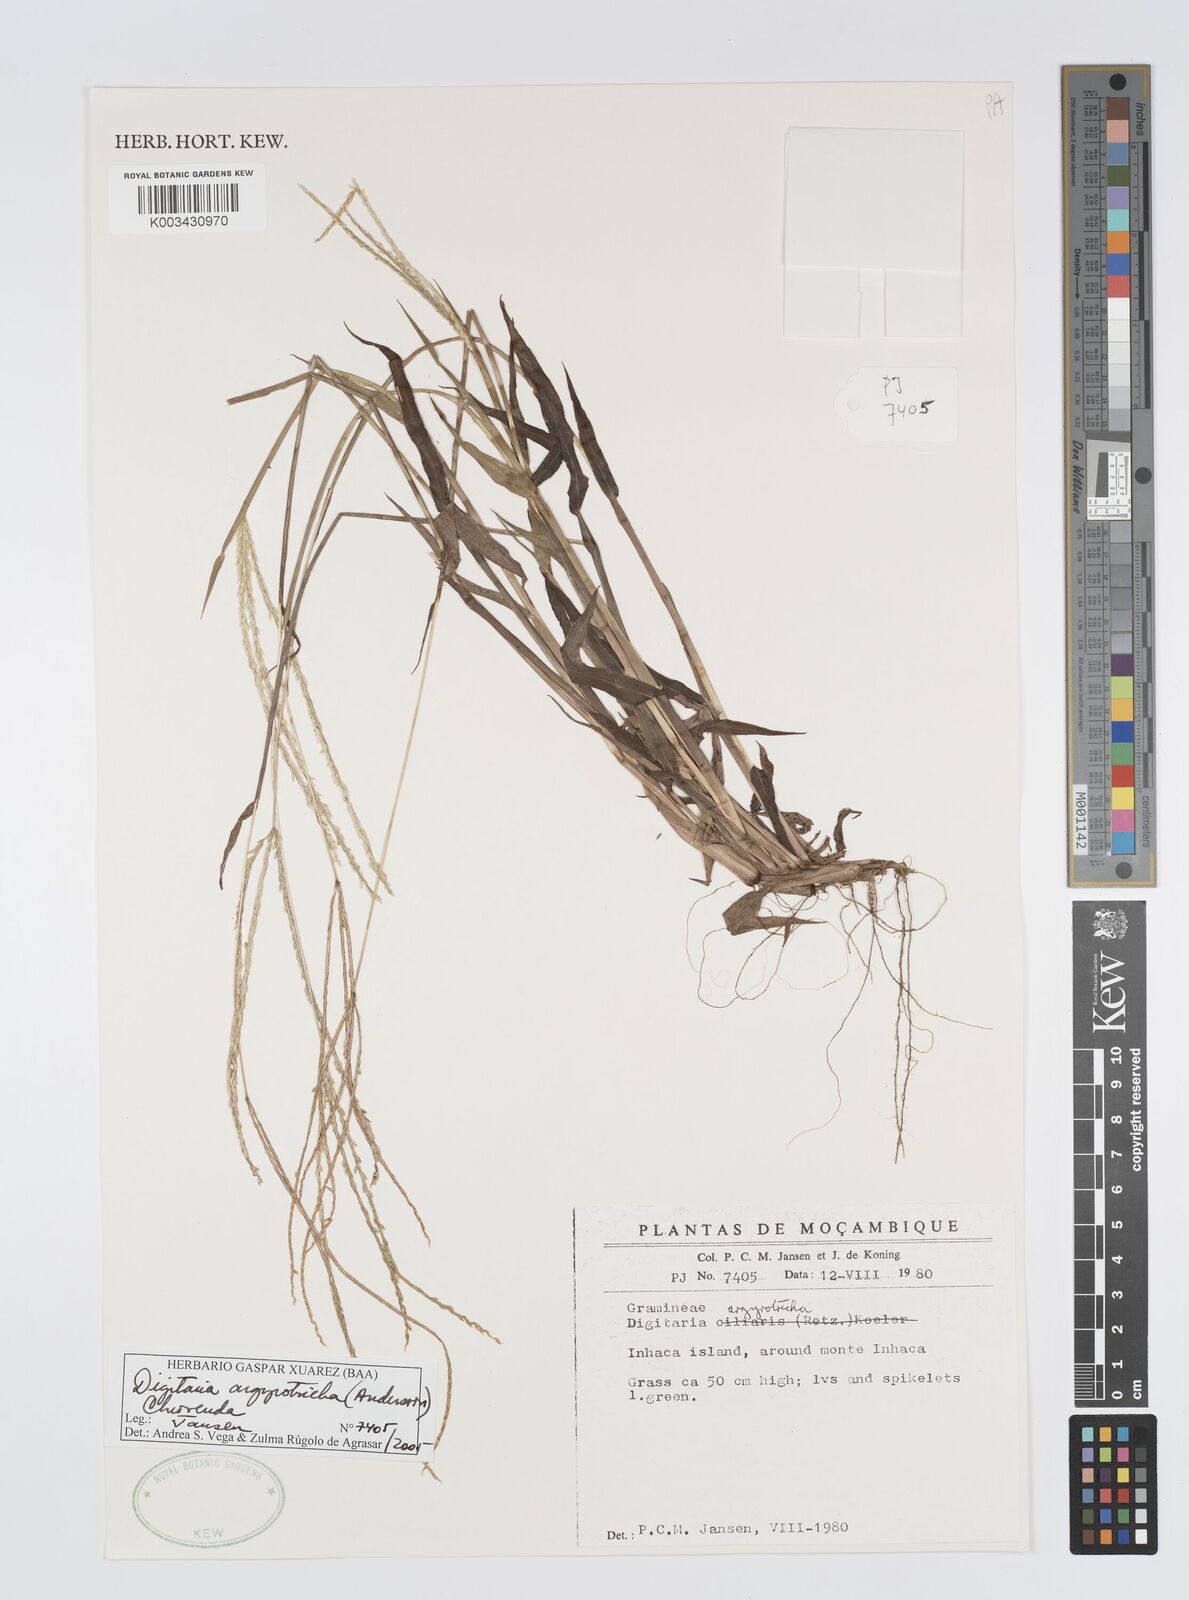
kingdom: Plantae
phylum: Tracheophyta
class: Liliopsida
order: Poales
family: Poaceae
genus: Digitaria
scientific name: Digitaria argyrotricha
